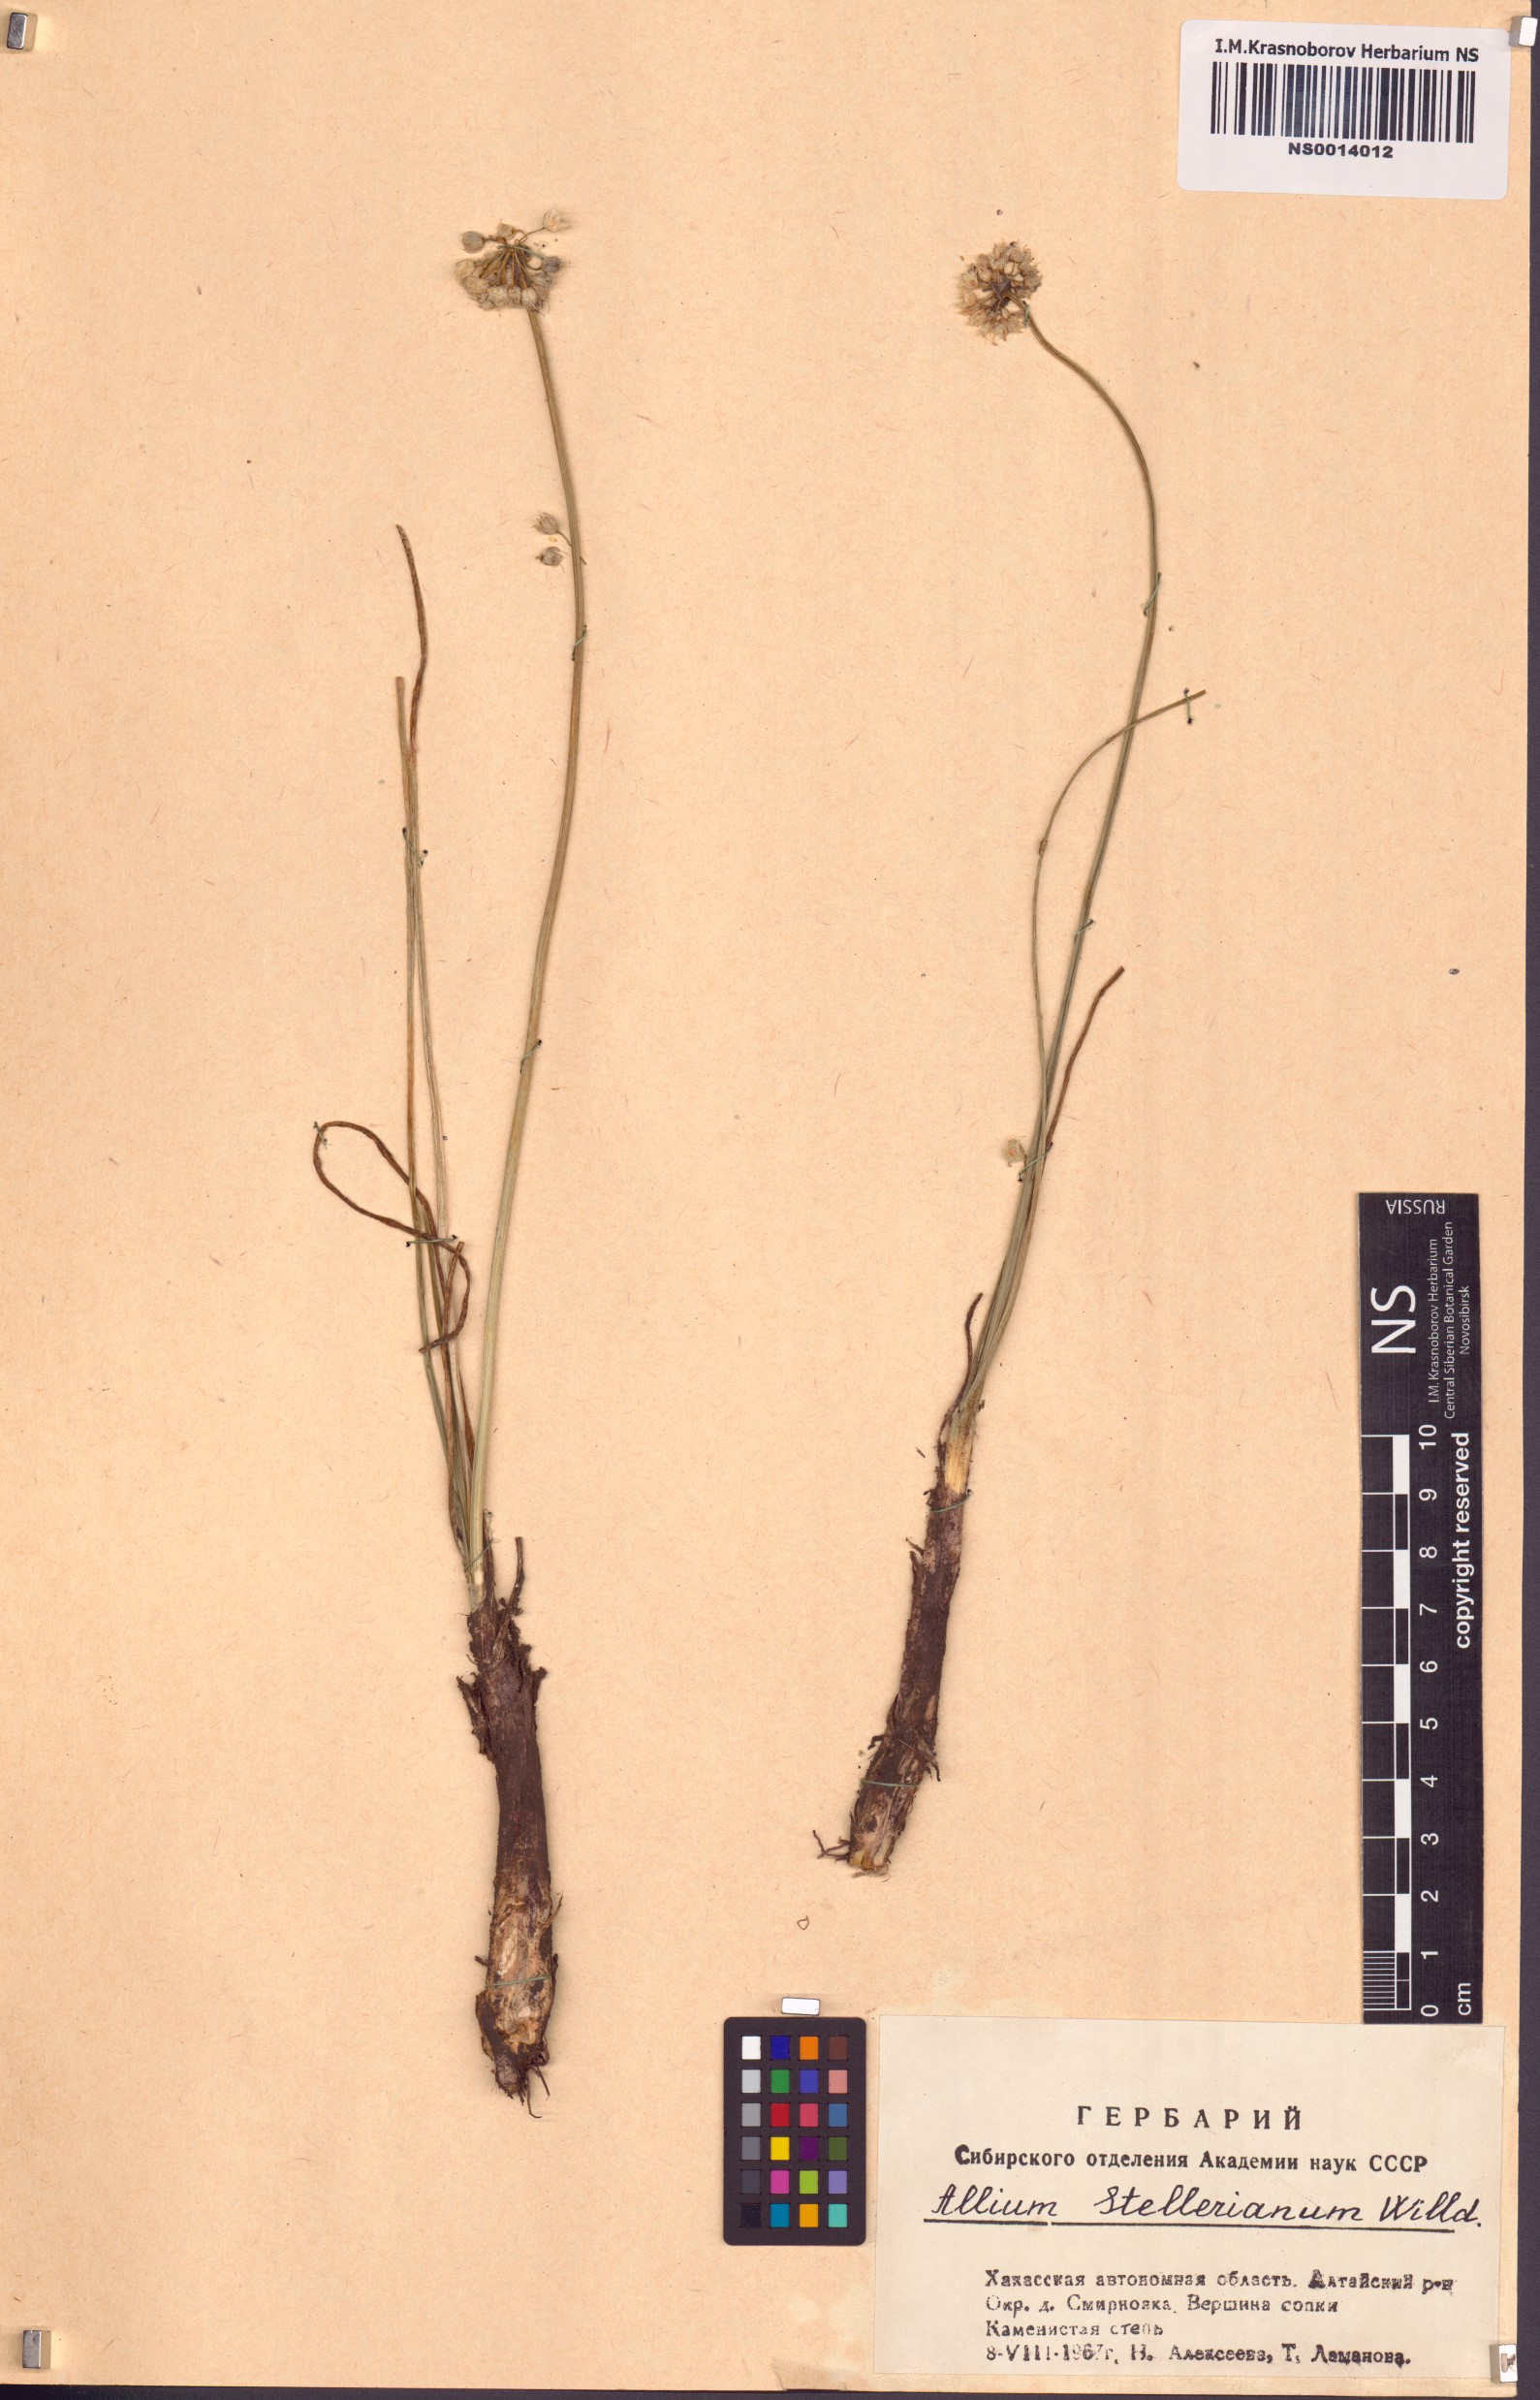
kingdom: Plantae
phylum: Tracheophyta
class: Liliopsida
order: Asparagales
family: Amaryllidaceae
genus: Allium
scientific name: Allium stellerianum
